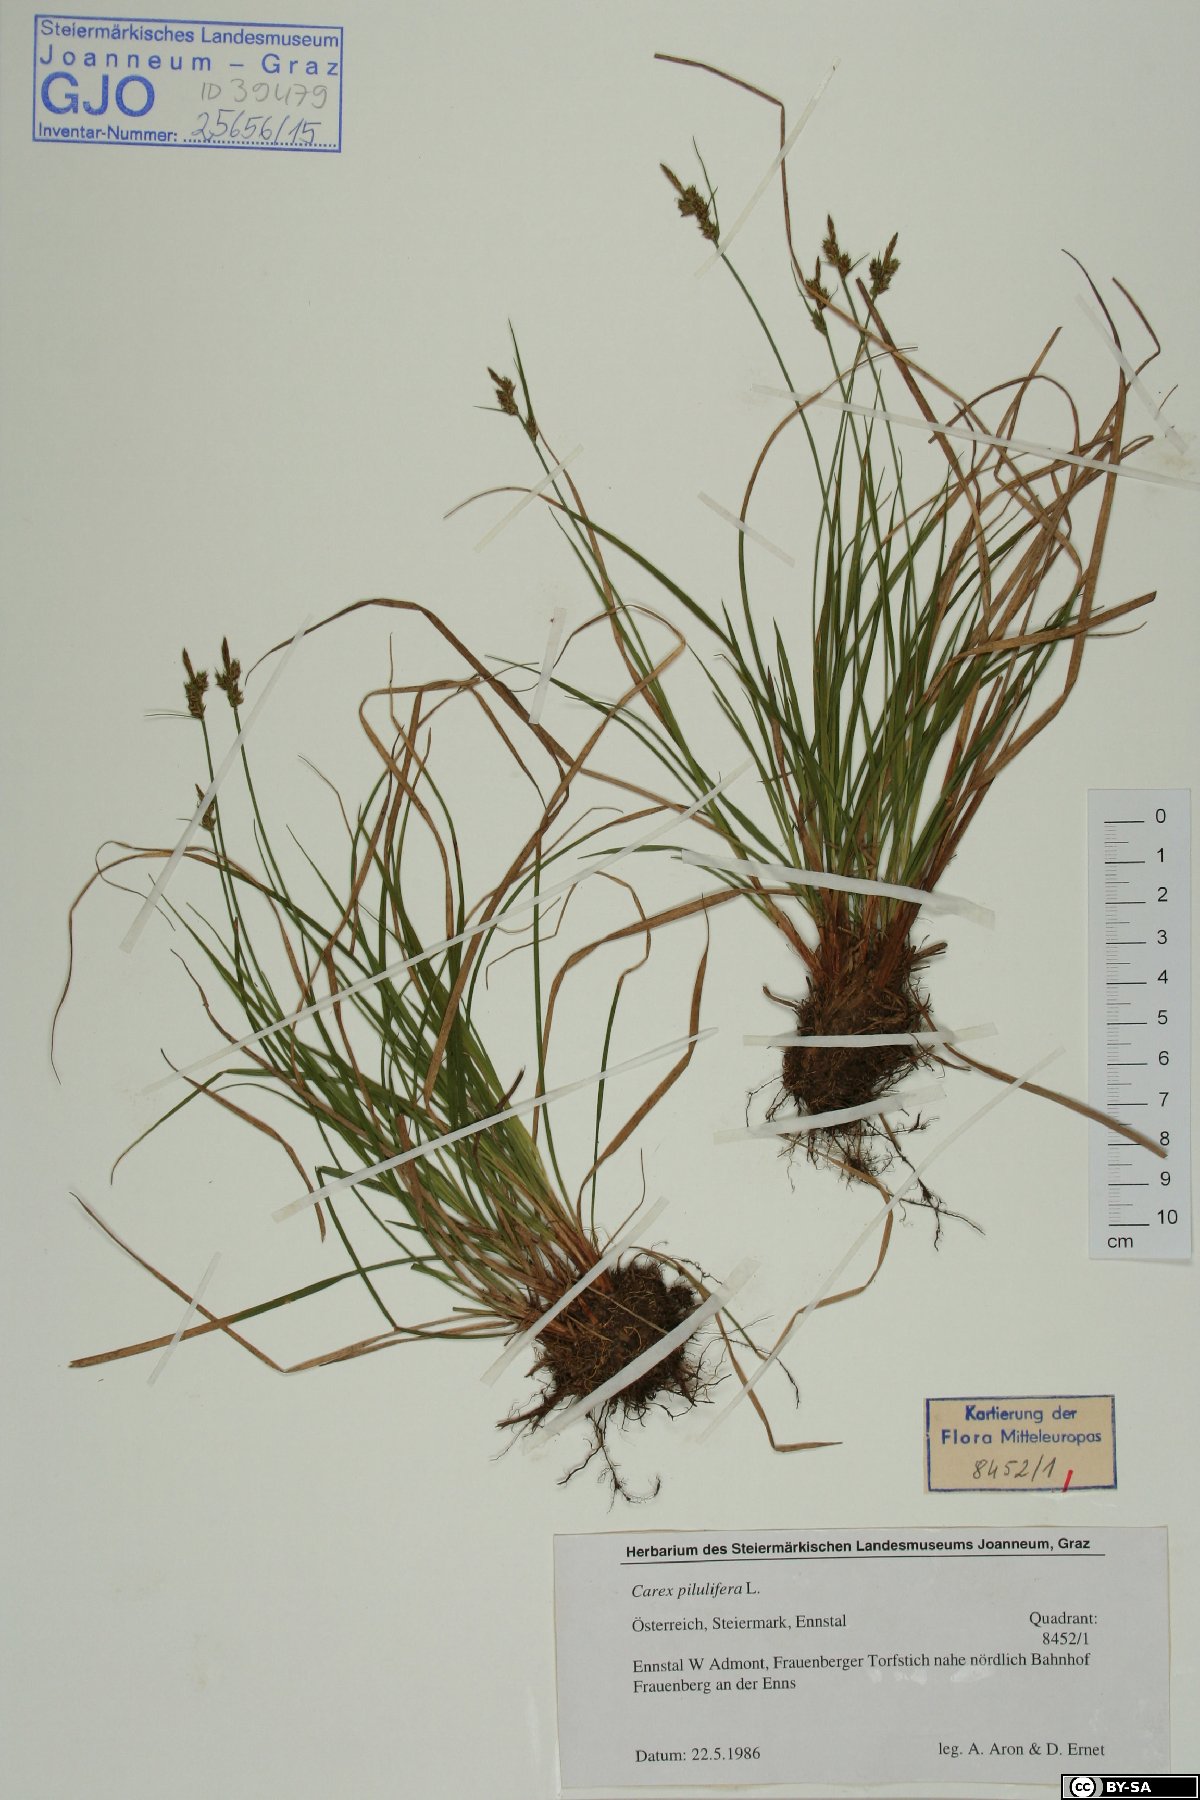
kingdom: Plantae
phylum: Tracheophyta
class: Liliopsida
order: Poales
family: Cyperaceae
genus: Carex
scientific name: Carex pilulifera
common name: Pill sedge
